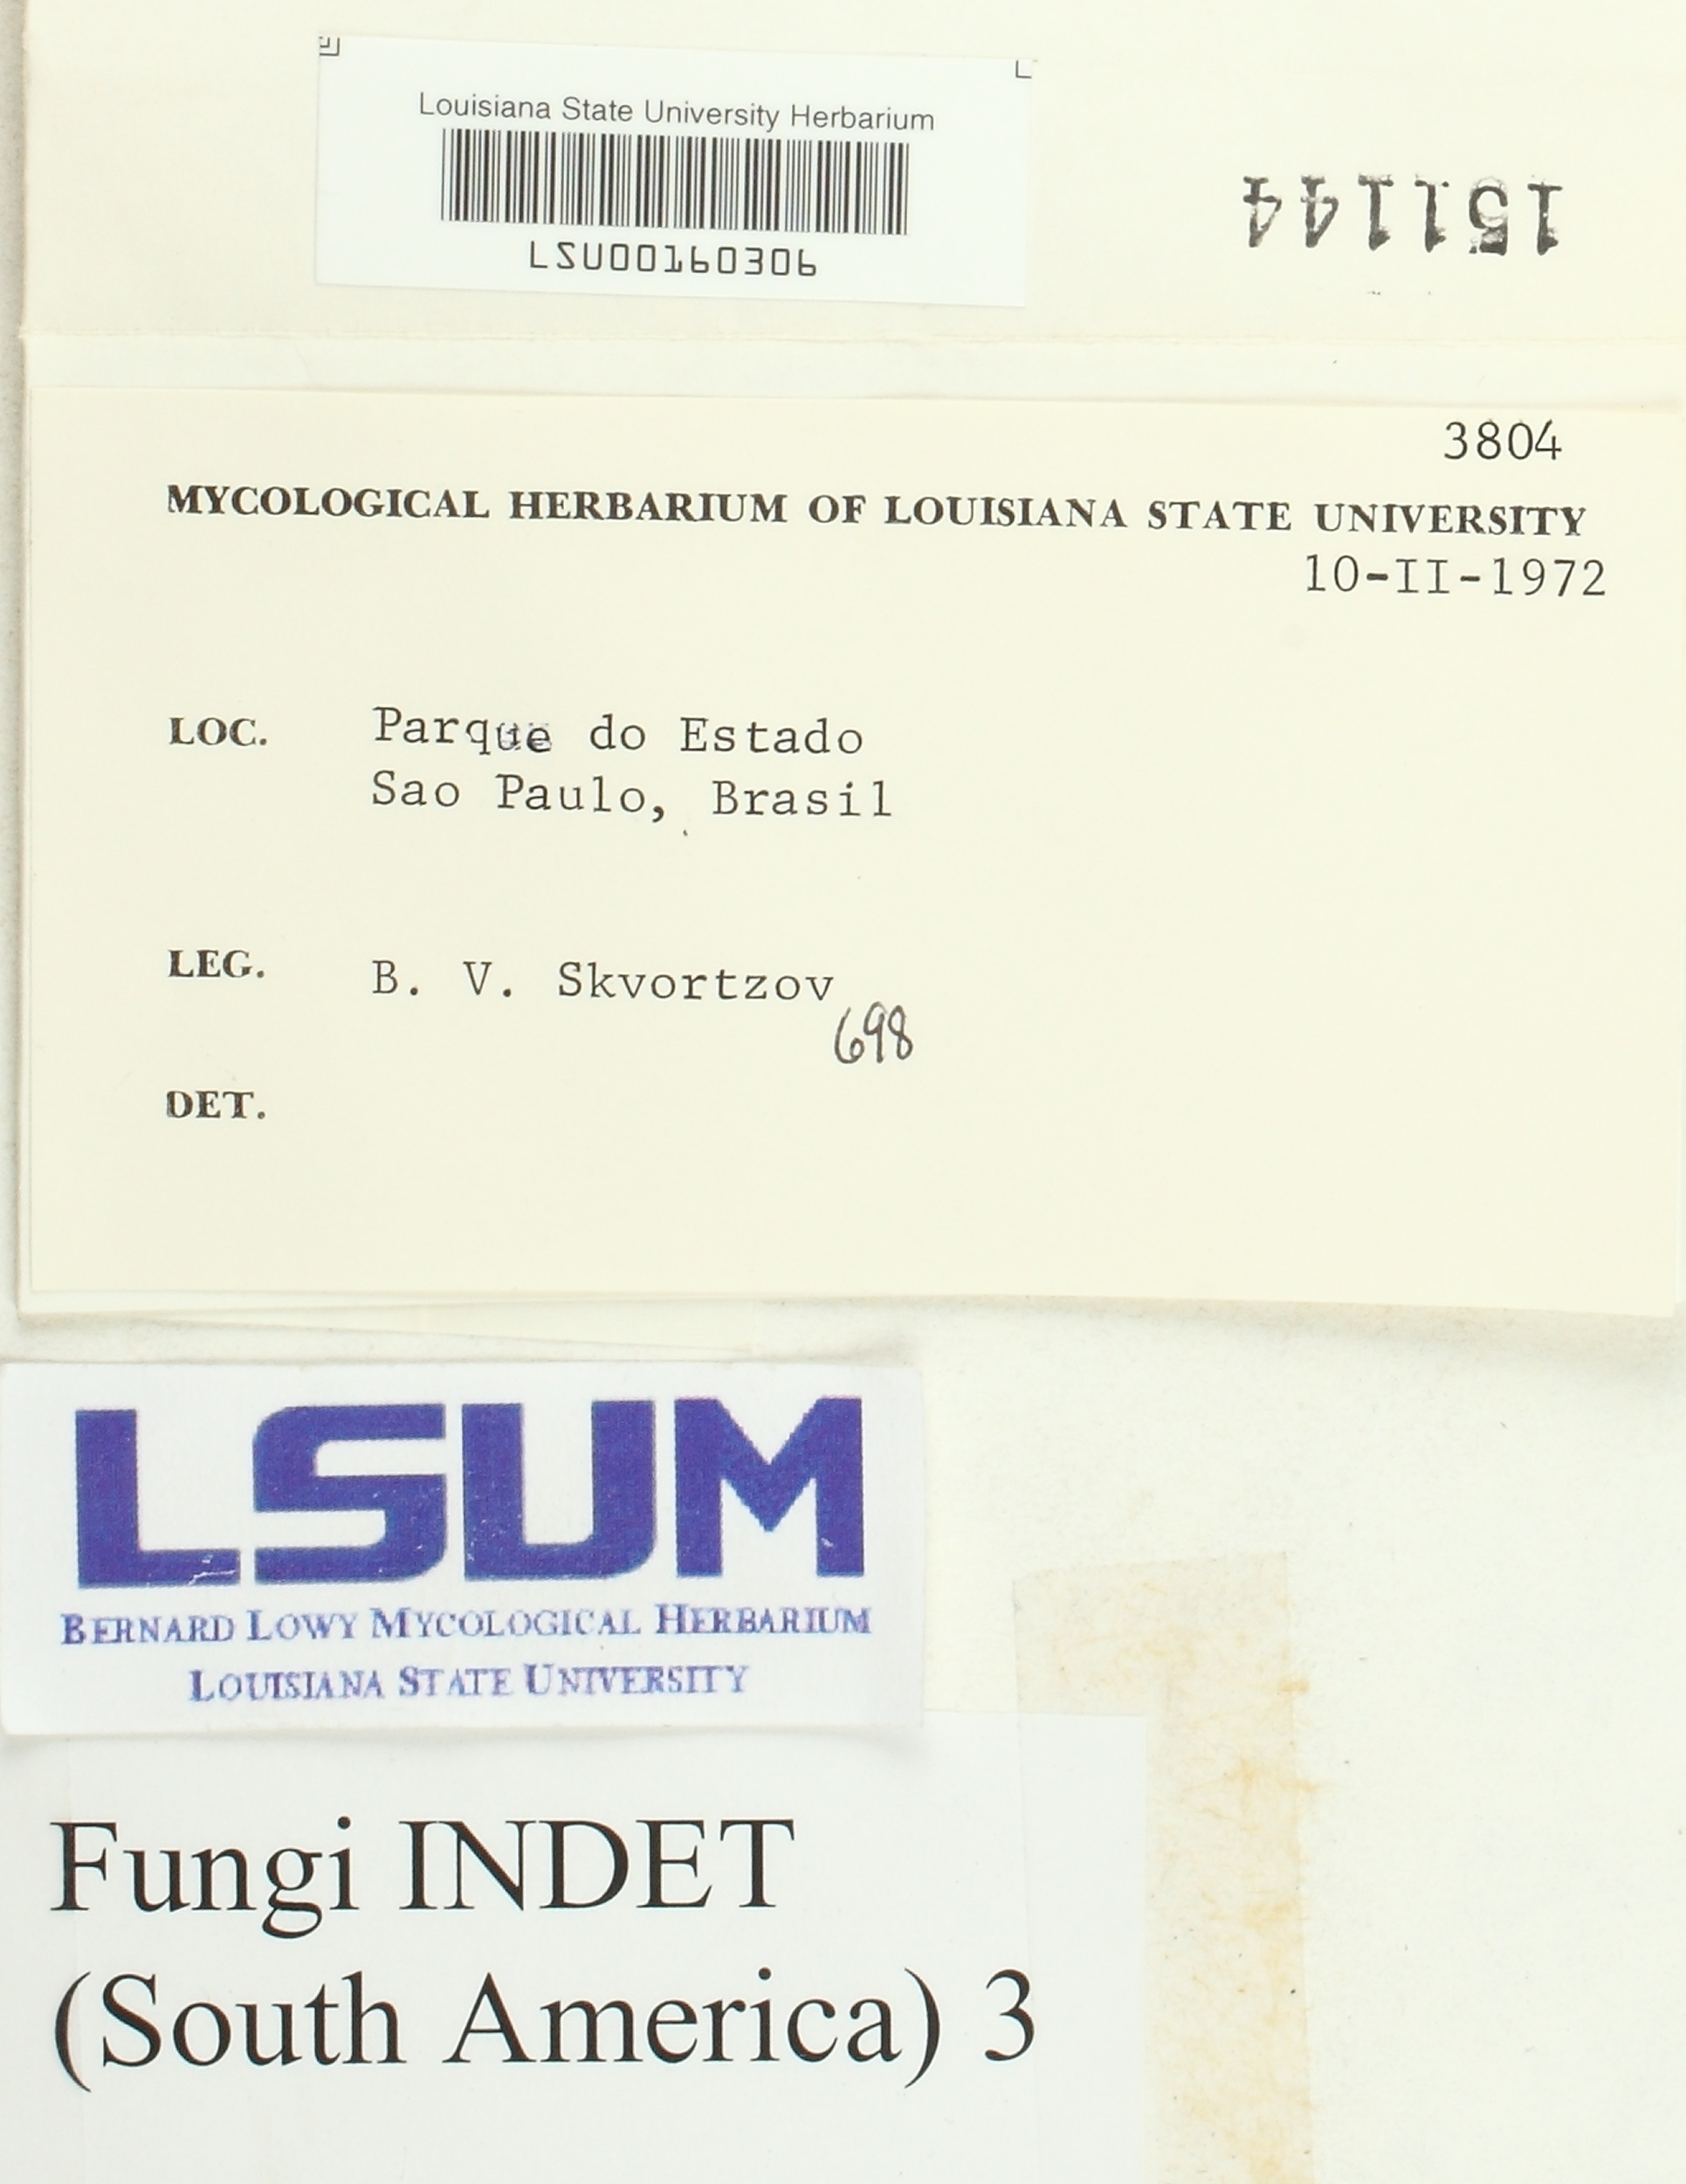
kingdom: Fungi
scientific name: Fungi
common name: Fungi
